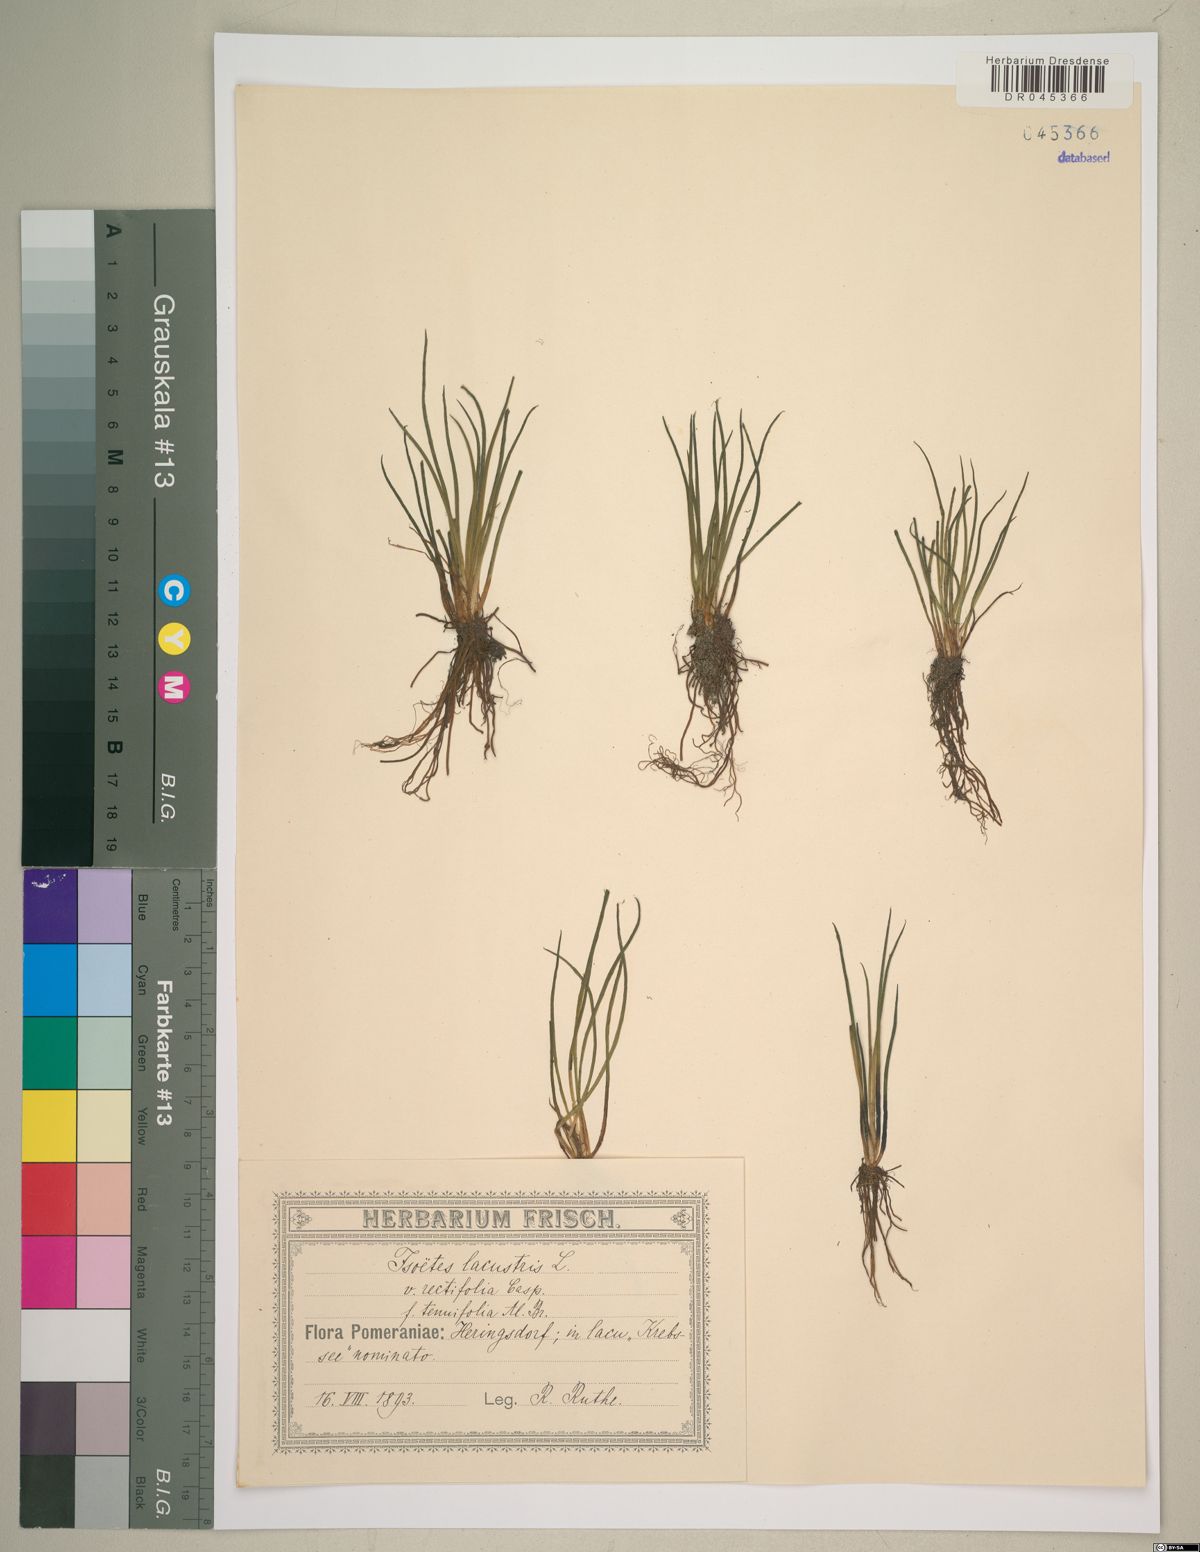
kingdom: Plantae
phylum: Tracheophyta
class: Lycopodiopsida
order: Isoetales
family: Isoetaceae
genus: Isoetes
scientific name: Isoetes lacustris
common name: Common quillwort
